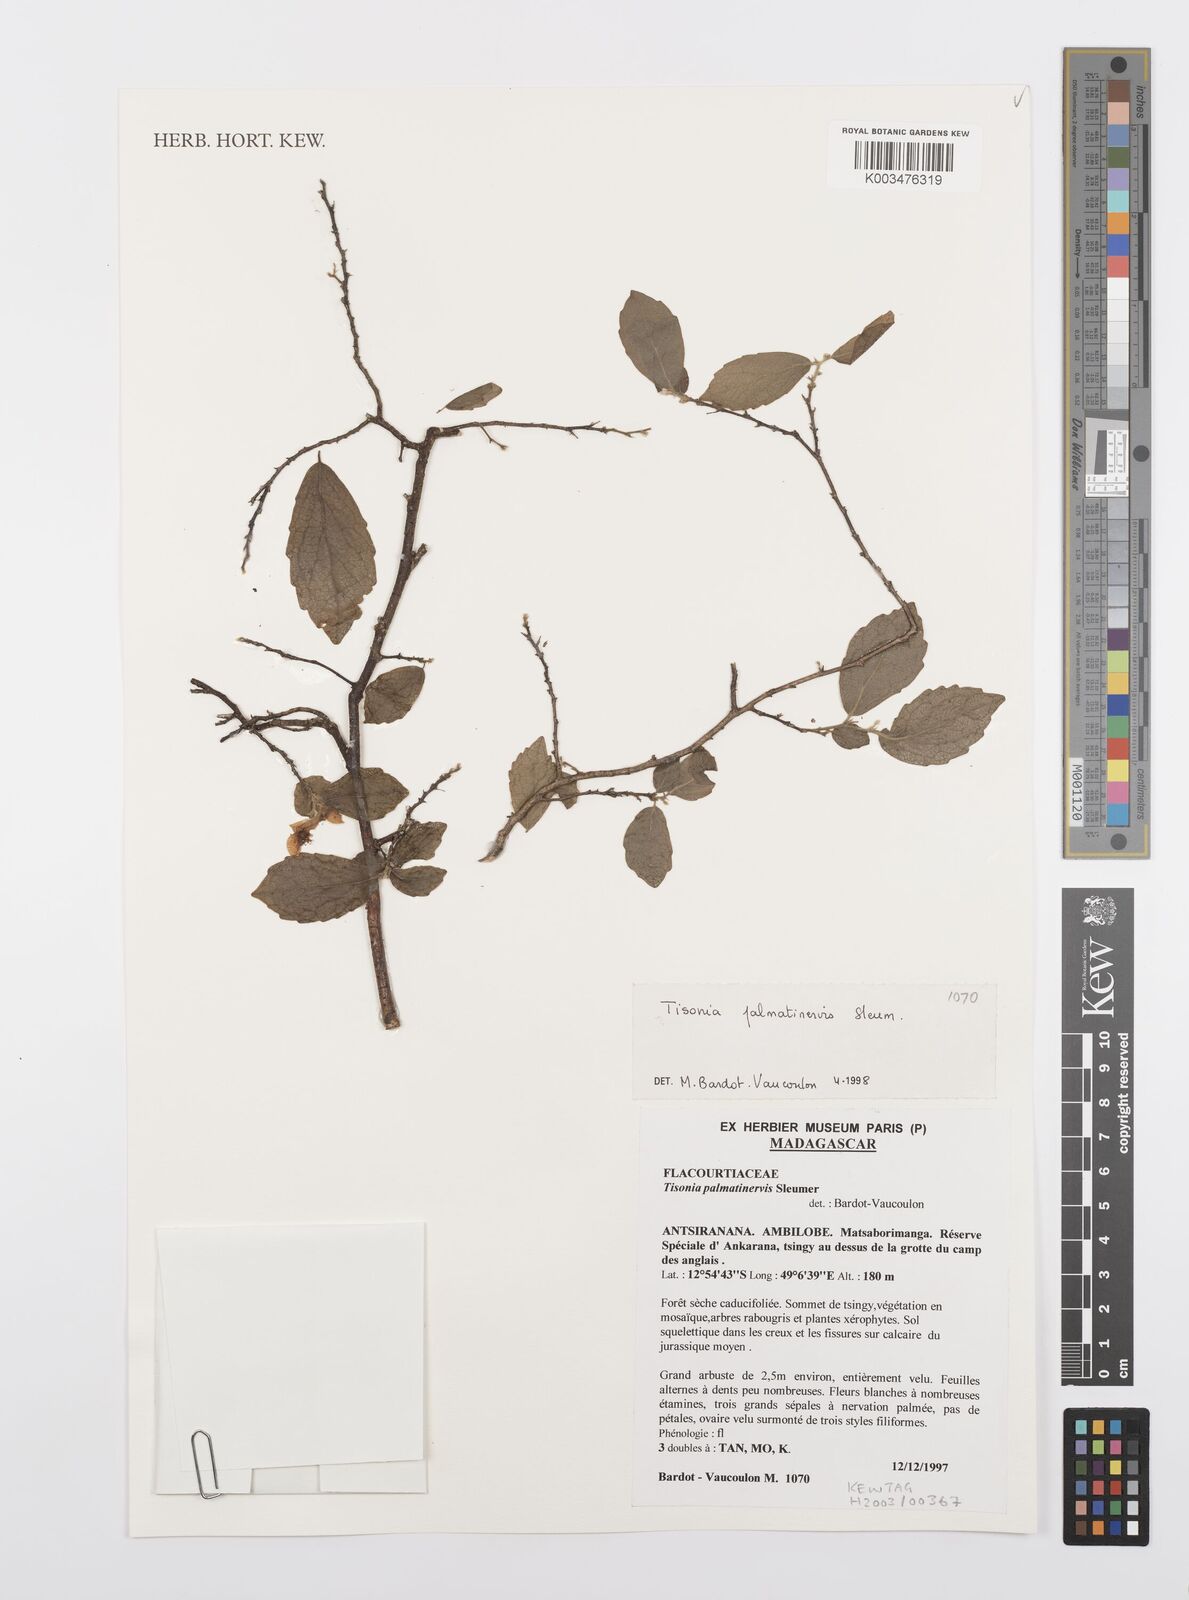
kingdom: Plantae
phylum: Tracheophyta
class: Magnoliopsida
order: Malpighiales
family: Salicaceae
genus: Tisonia
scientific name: Tisonia palmatinervis
